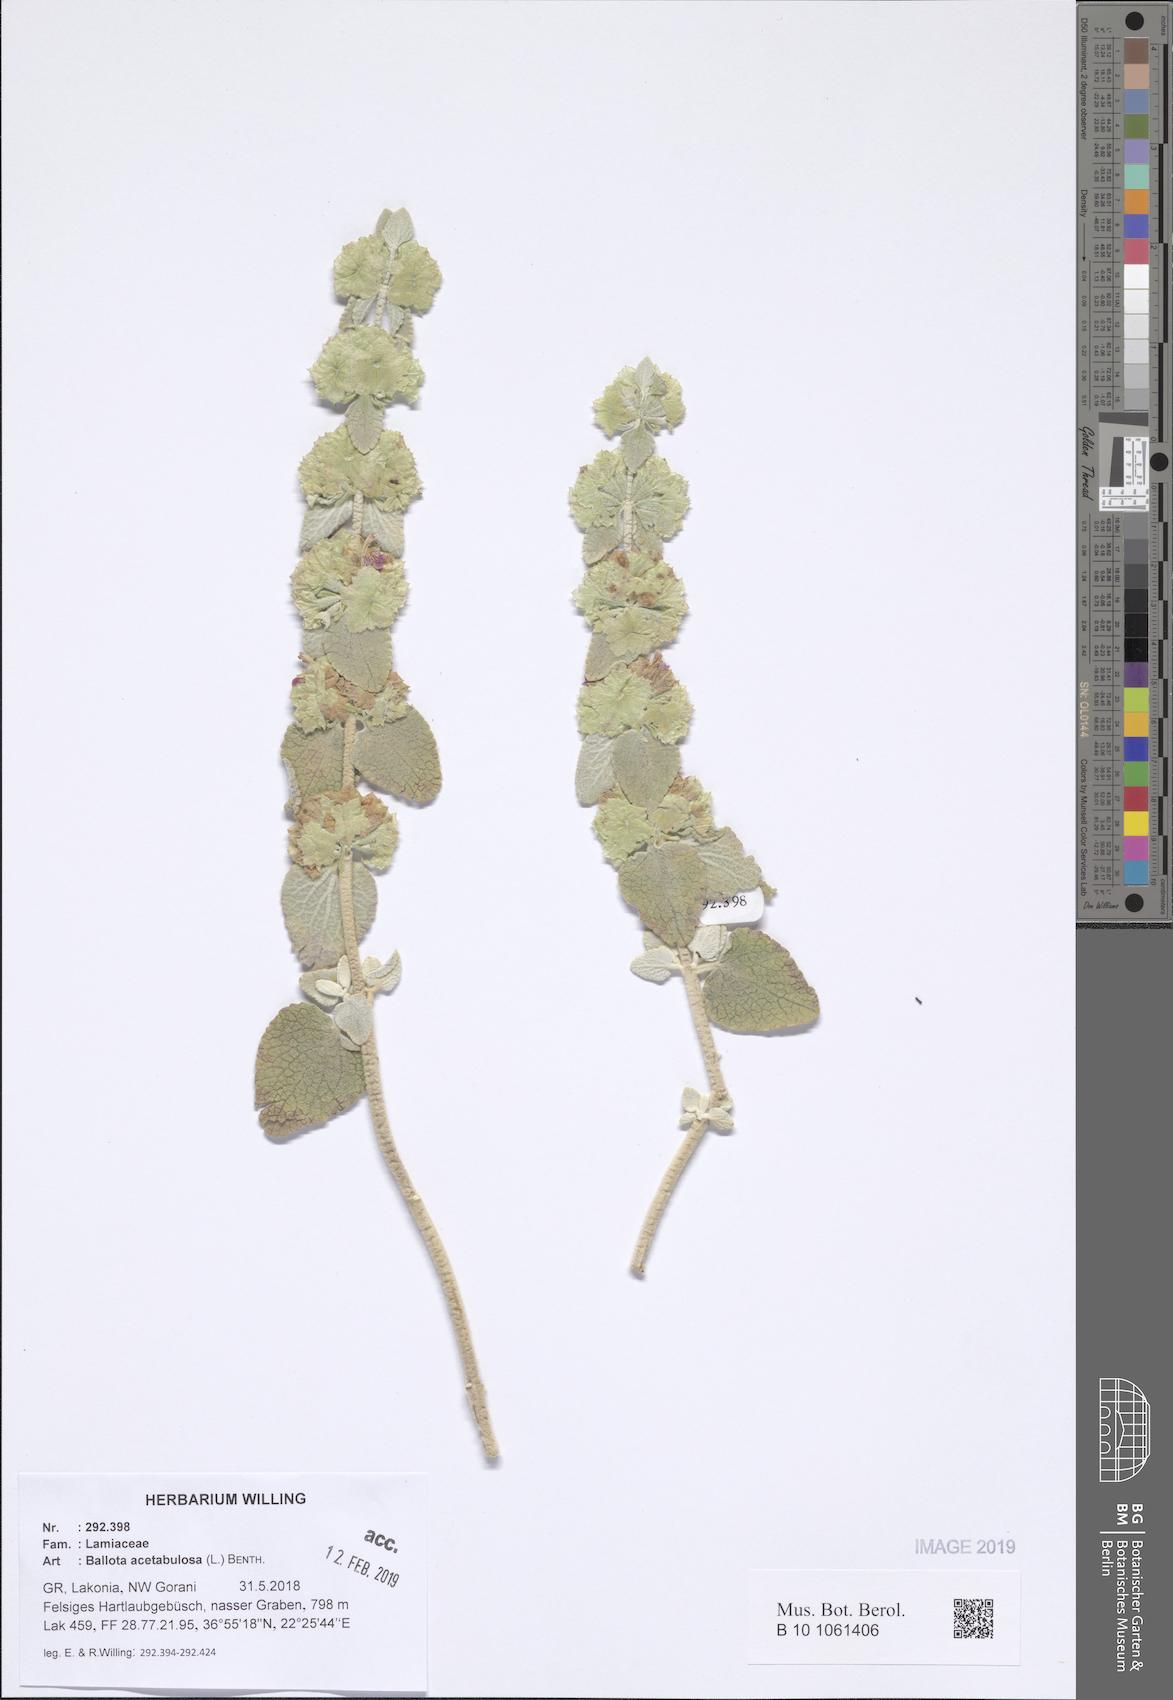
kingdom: Plantae
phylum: Tracheophyta
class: Magnoliopsida
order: Lamiales
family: Lamiaceae
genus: Pseudodictamnus
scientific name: Pseudodictamnus acetabulosus
